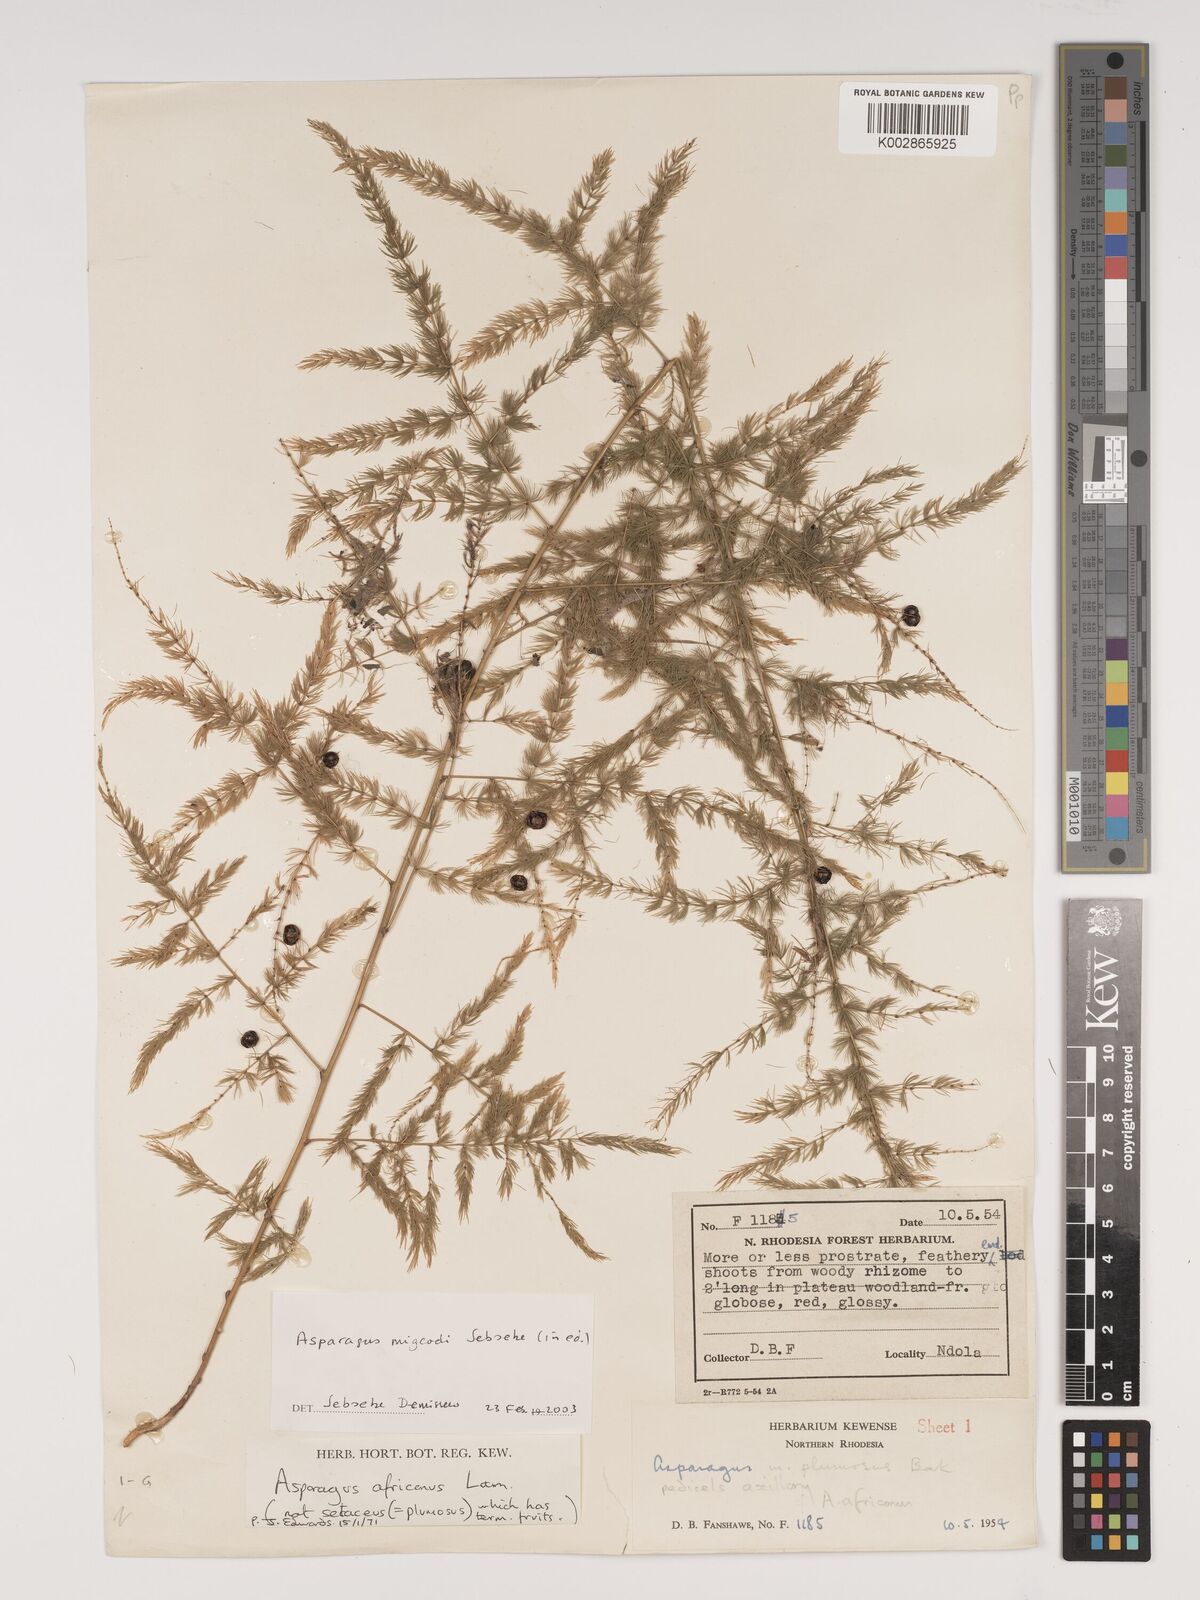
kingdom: Plantae
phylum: Tracheophyta
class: Liliopsida
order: Asparagales
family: Asparagaceae
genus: Asparagus
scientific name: Asparagus migeodii
